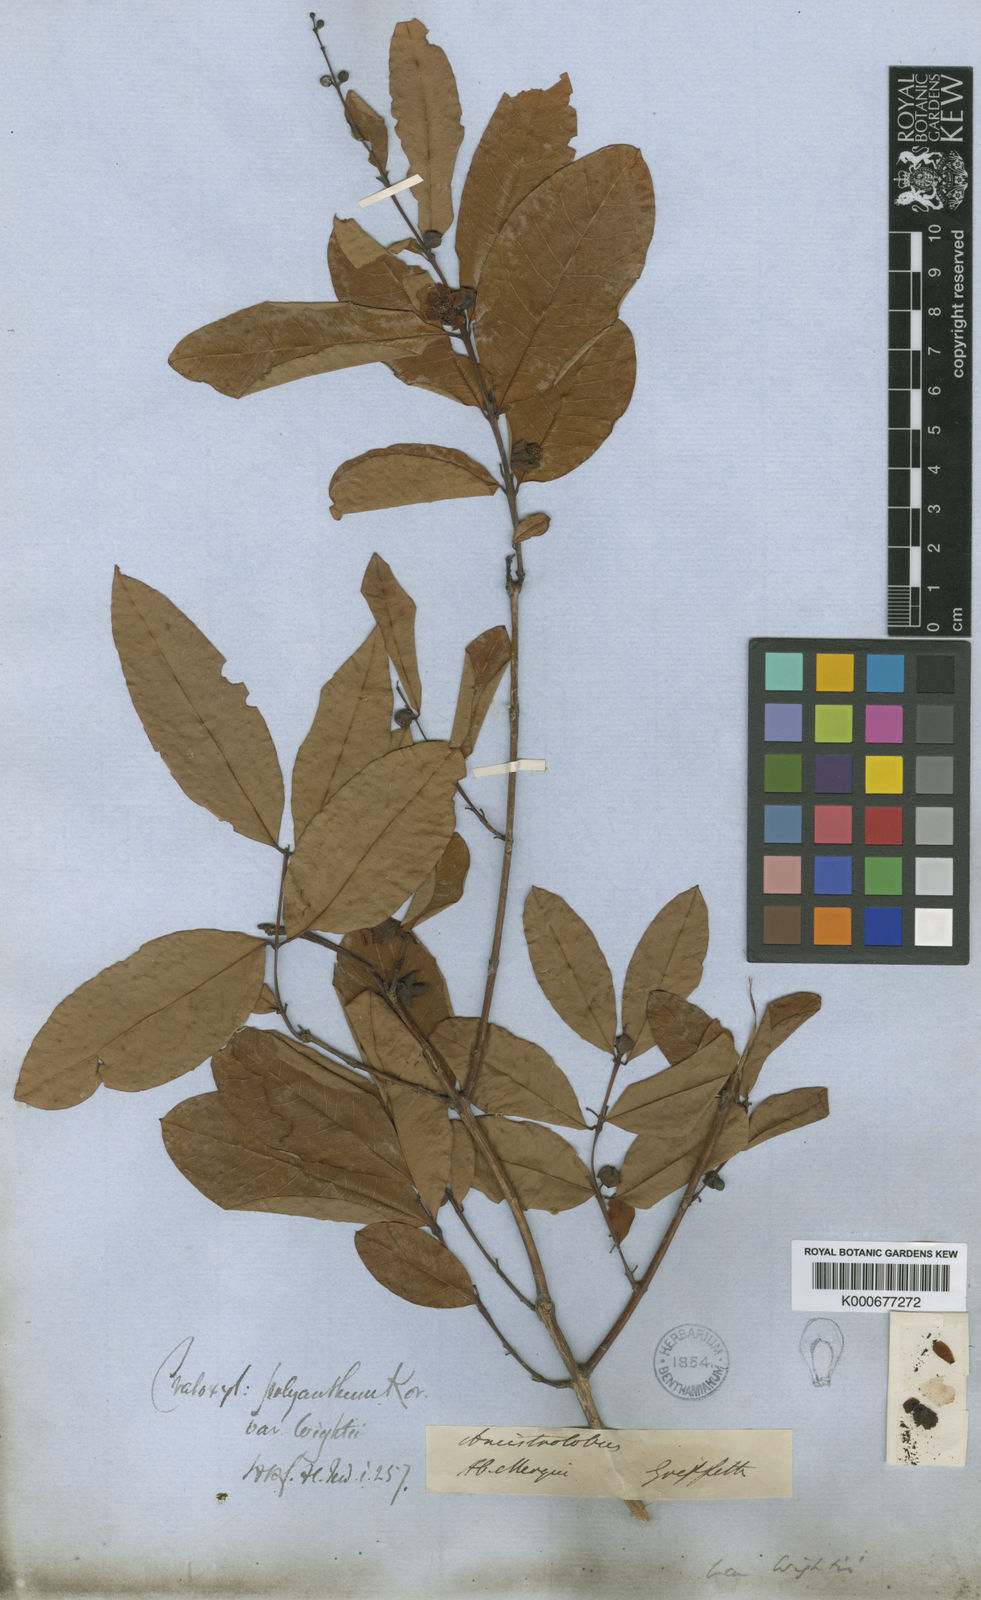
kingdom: Plantae
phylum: Tracheophyta
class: Magnoliopsida
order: Malpighiales
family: Hypericaceae
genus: Cratoxylum
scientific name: Cratoxylum cochinchinense
